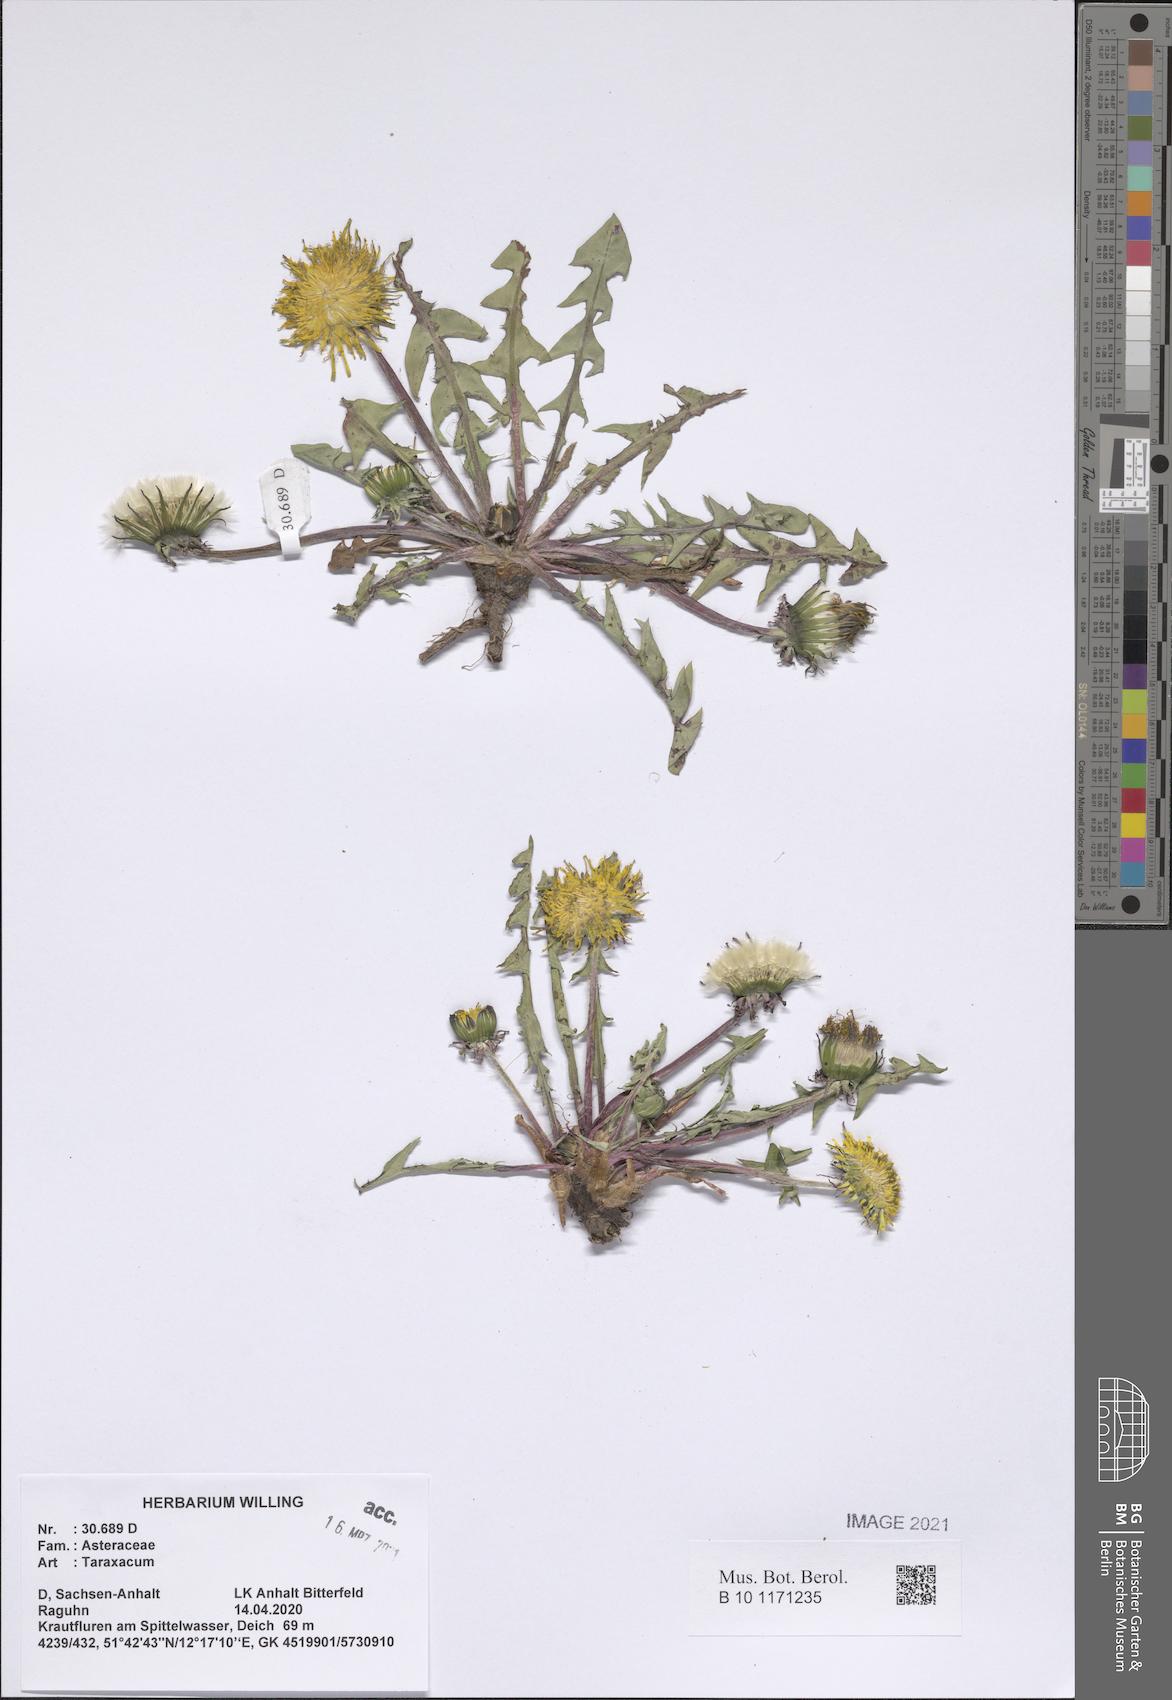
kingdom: Plantae
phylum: Tracheophyta
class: Magnoliopsida
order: Asterales
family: Asteraceae
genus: Taraxacum
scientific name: Taraxacum
